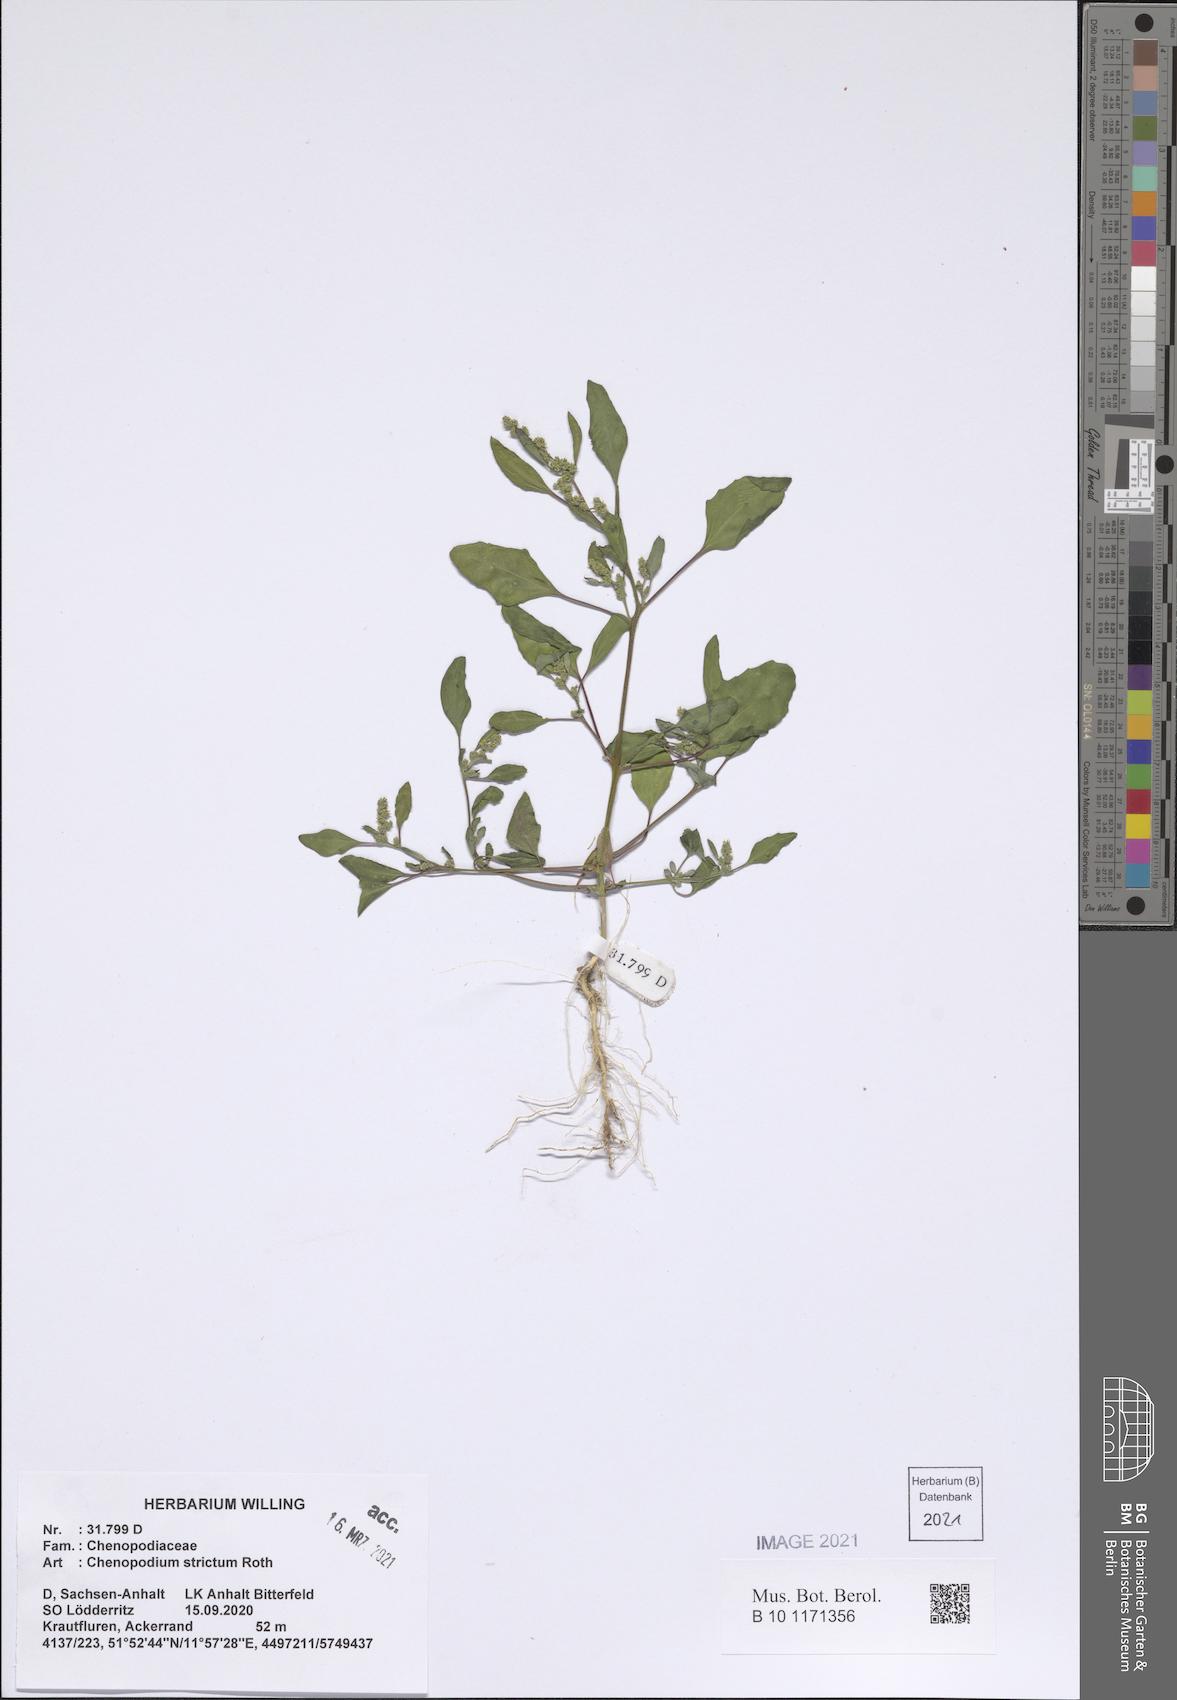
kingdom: Plantae
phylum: Tracheophyta
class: Magnoliopsida
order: Caryophyllales
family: Amaranthaceae
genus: Chenopodium
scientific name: Chenopodium album
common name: Fat-hen
